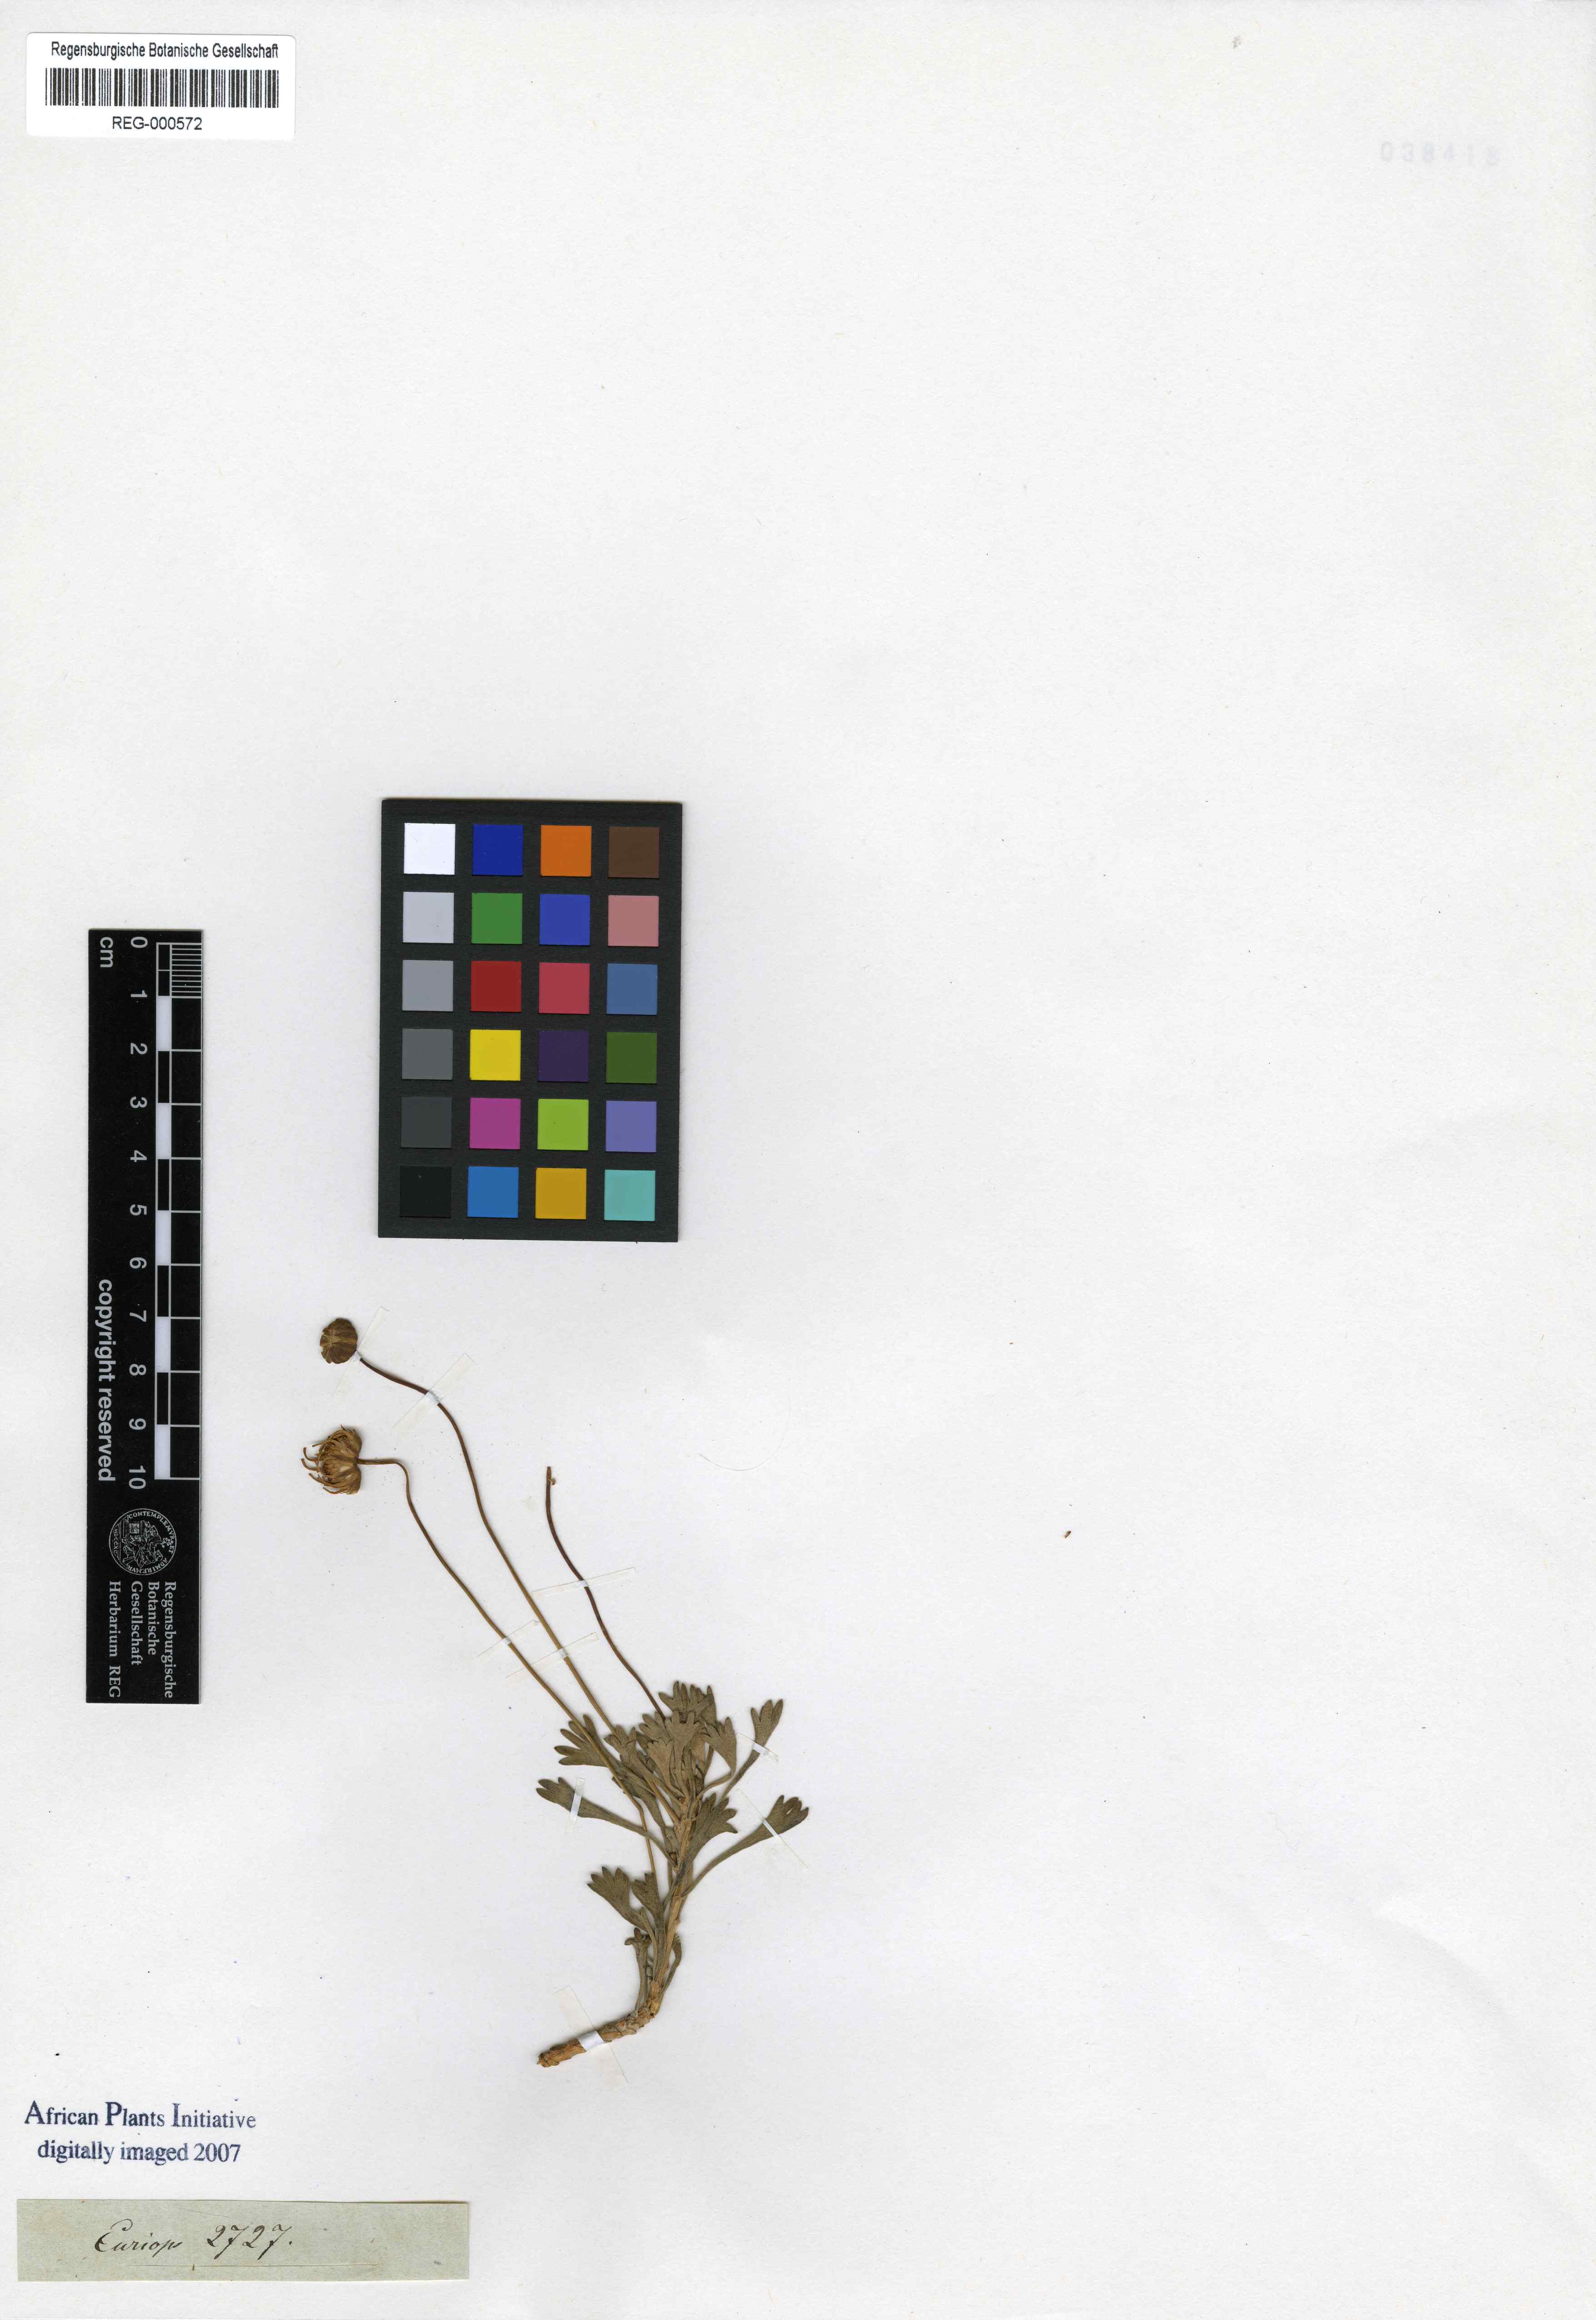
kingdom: Plantae
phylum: Tracheophyta
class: Magnoliopsida
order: Asterales
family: Asteraceae
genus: Euryops
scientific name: Euryops dregeanus
